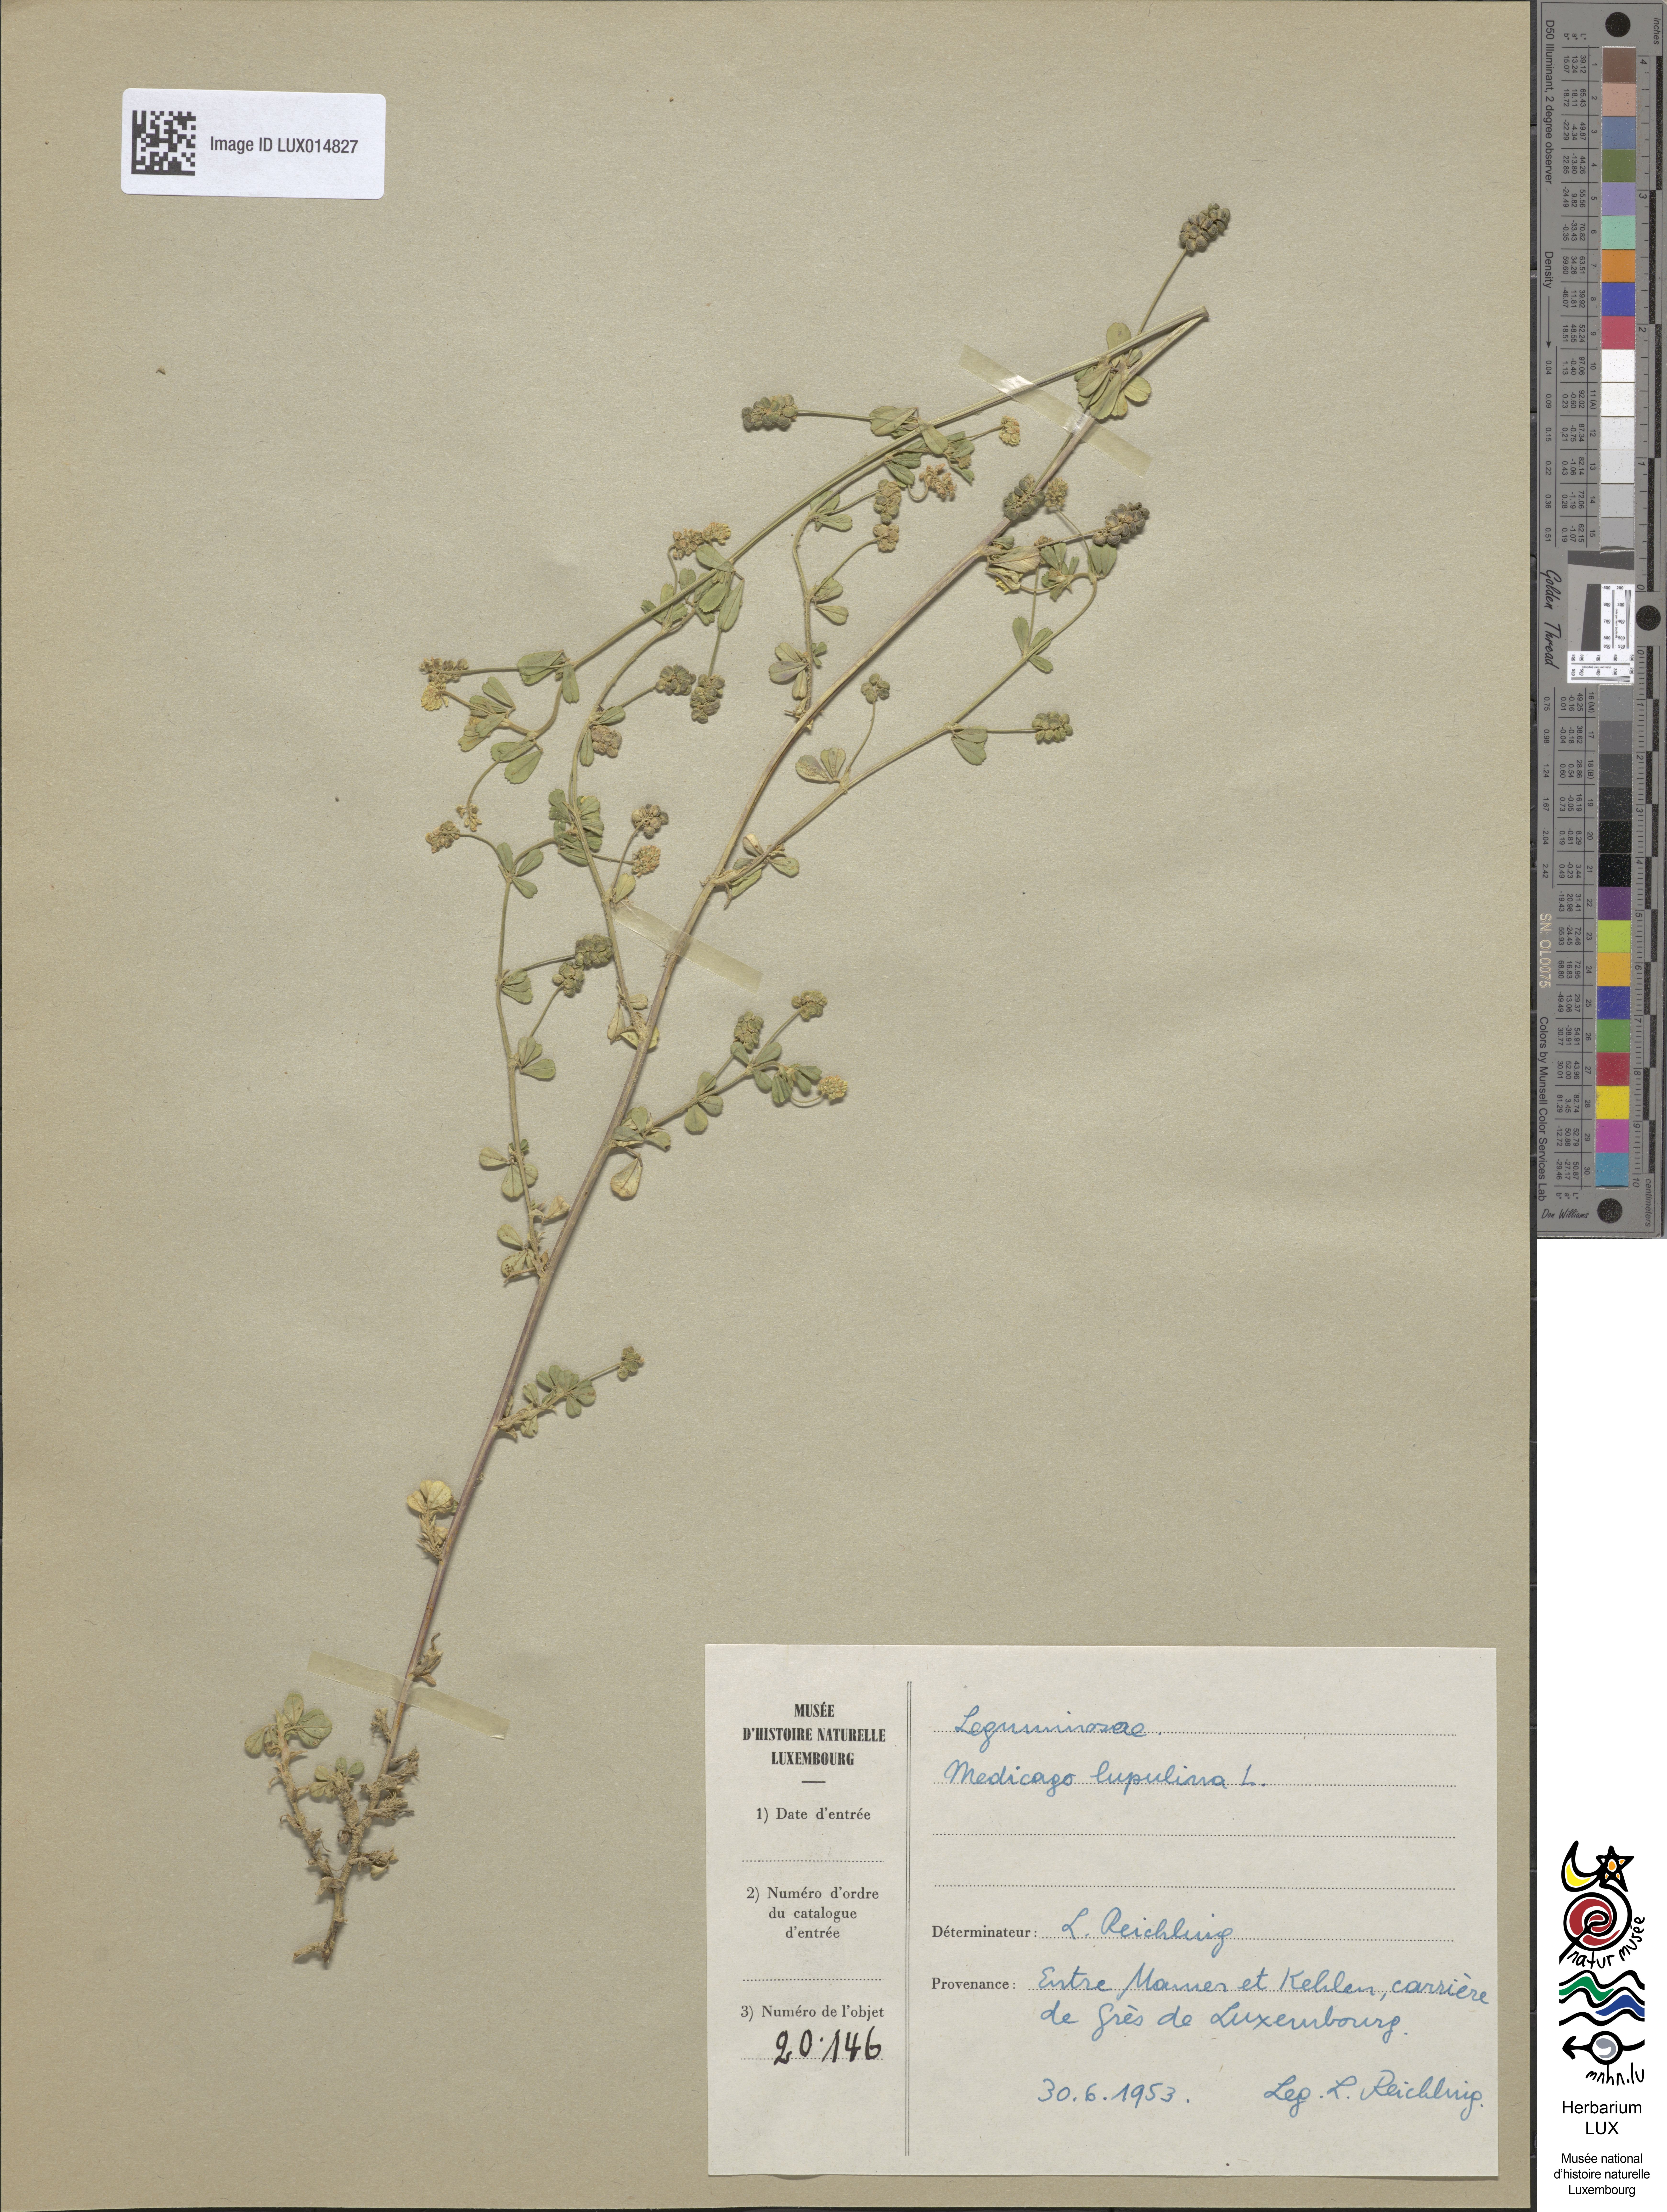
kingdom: Plantae
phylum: Tracheophyta
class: Magnoliopsida
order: Fabales
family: Fabaceae
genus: Medicago
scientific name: Medicago lupulina
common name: Black medick
